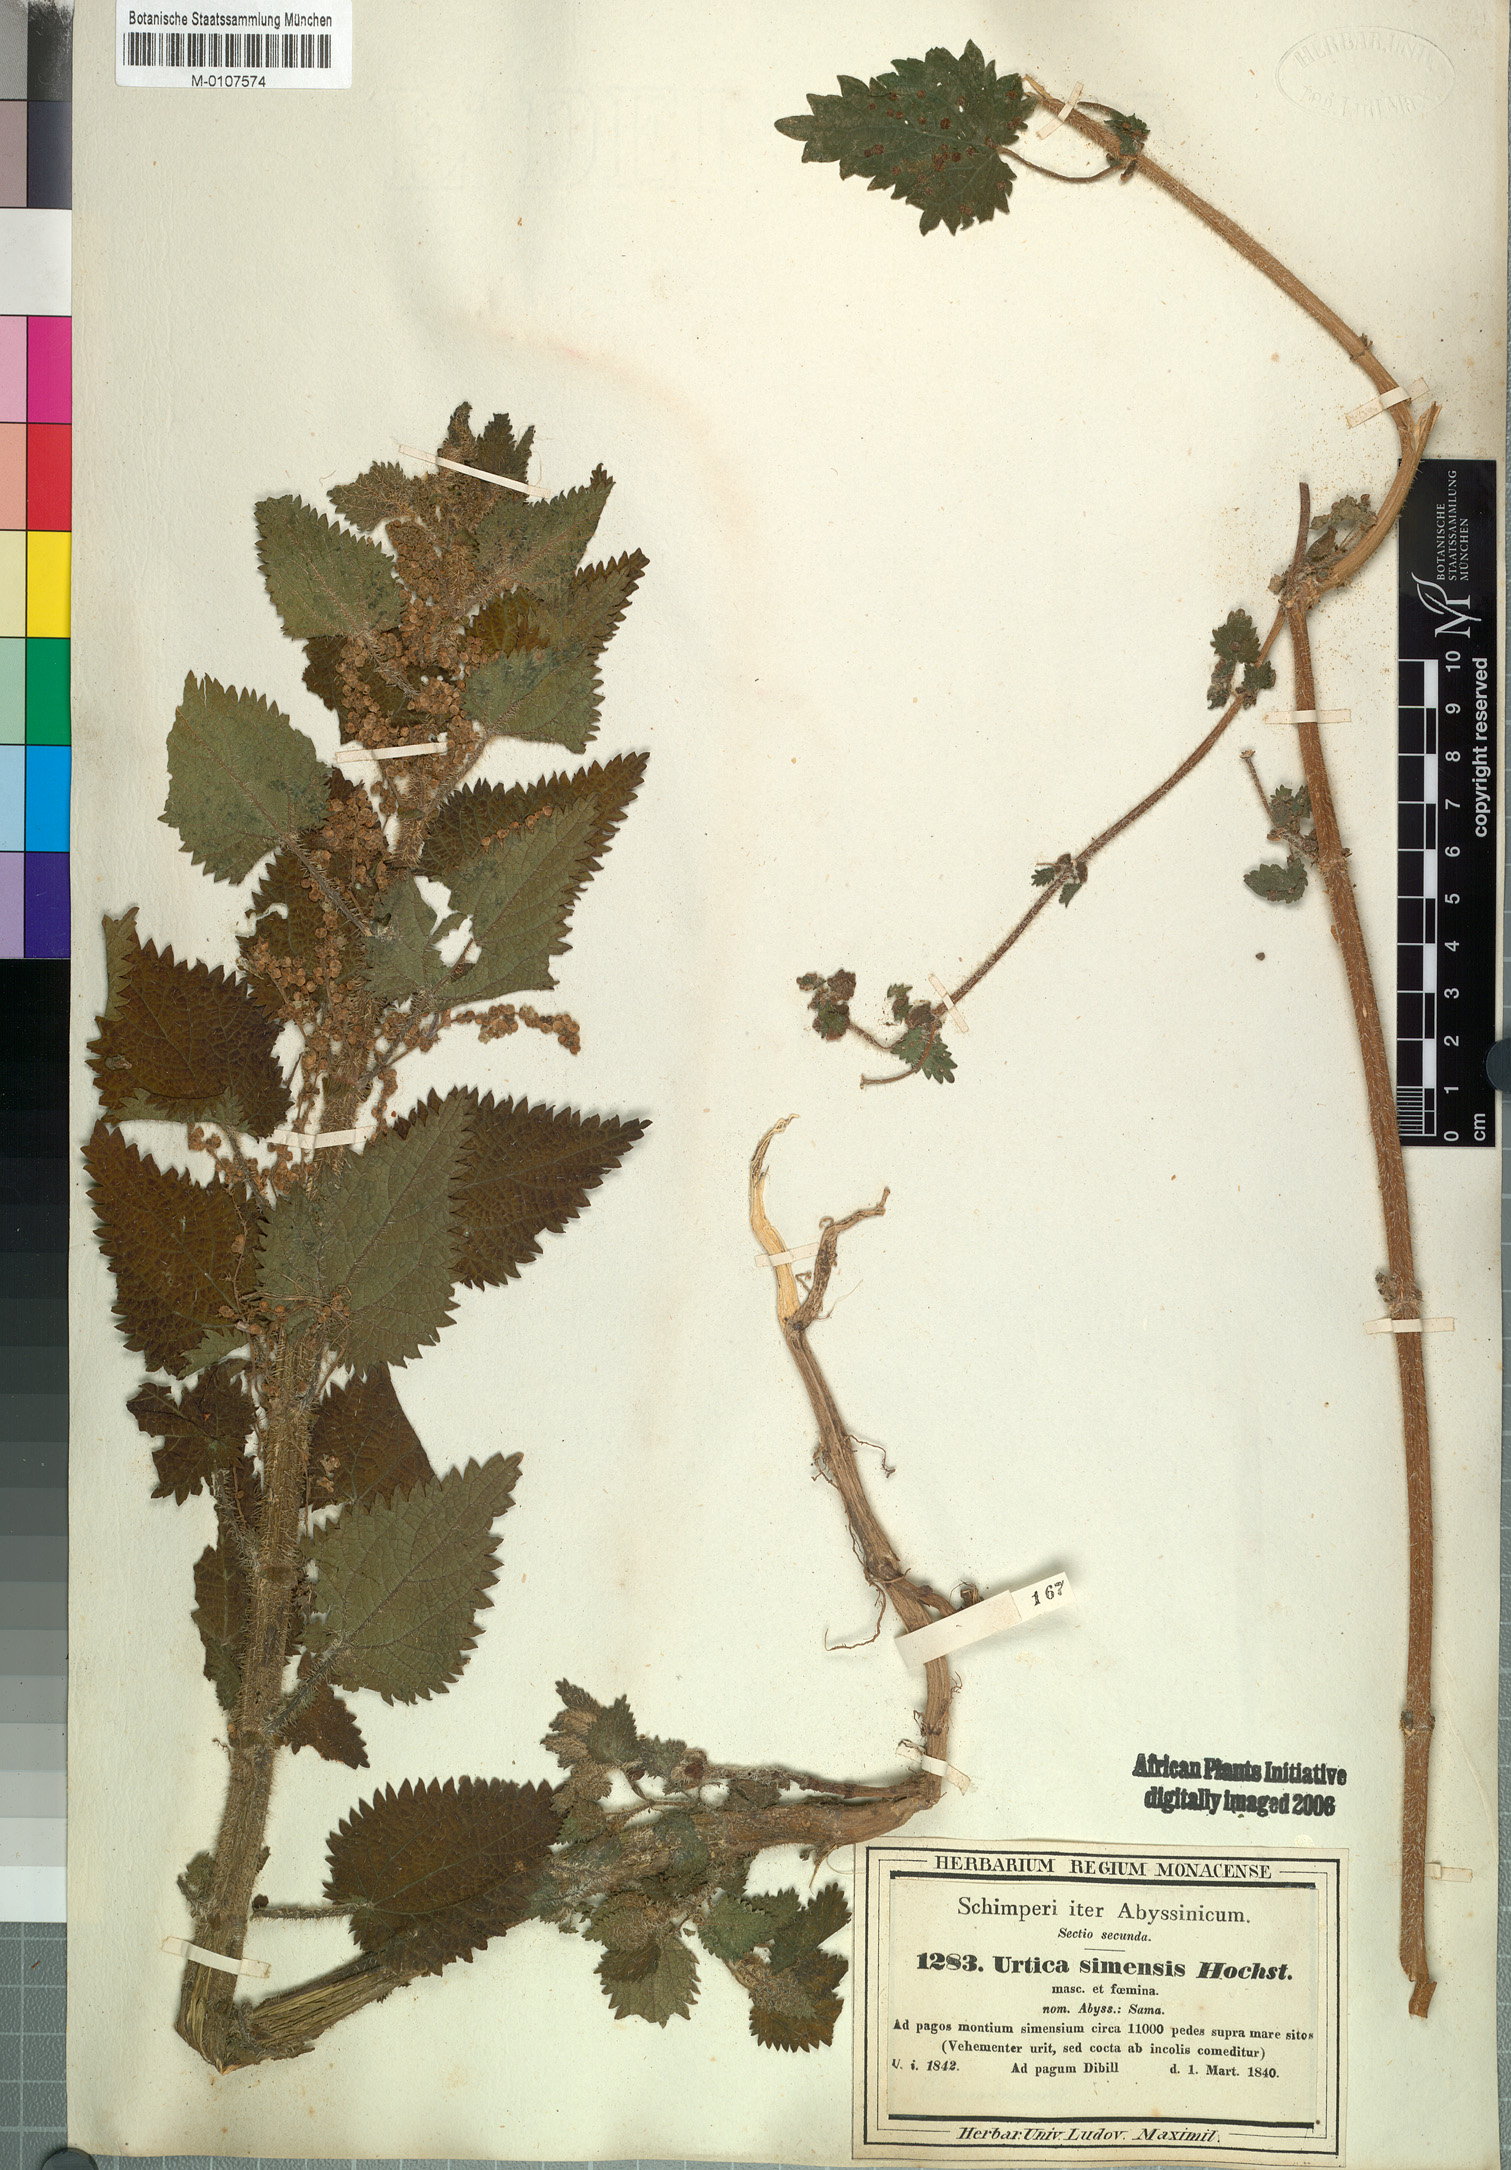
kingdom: Plantae
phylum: Tracheophyta
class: Magnoliopsida
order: Rosales
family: Urticaceae
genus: Urtica
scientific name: Urtica simensis
